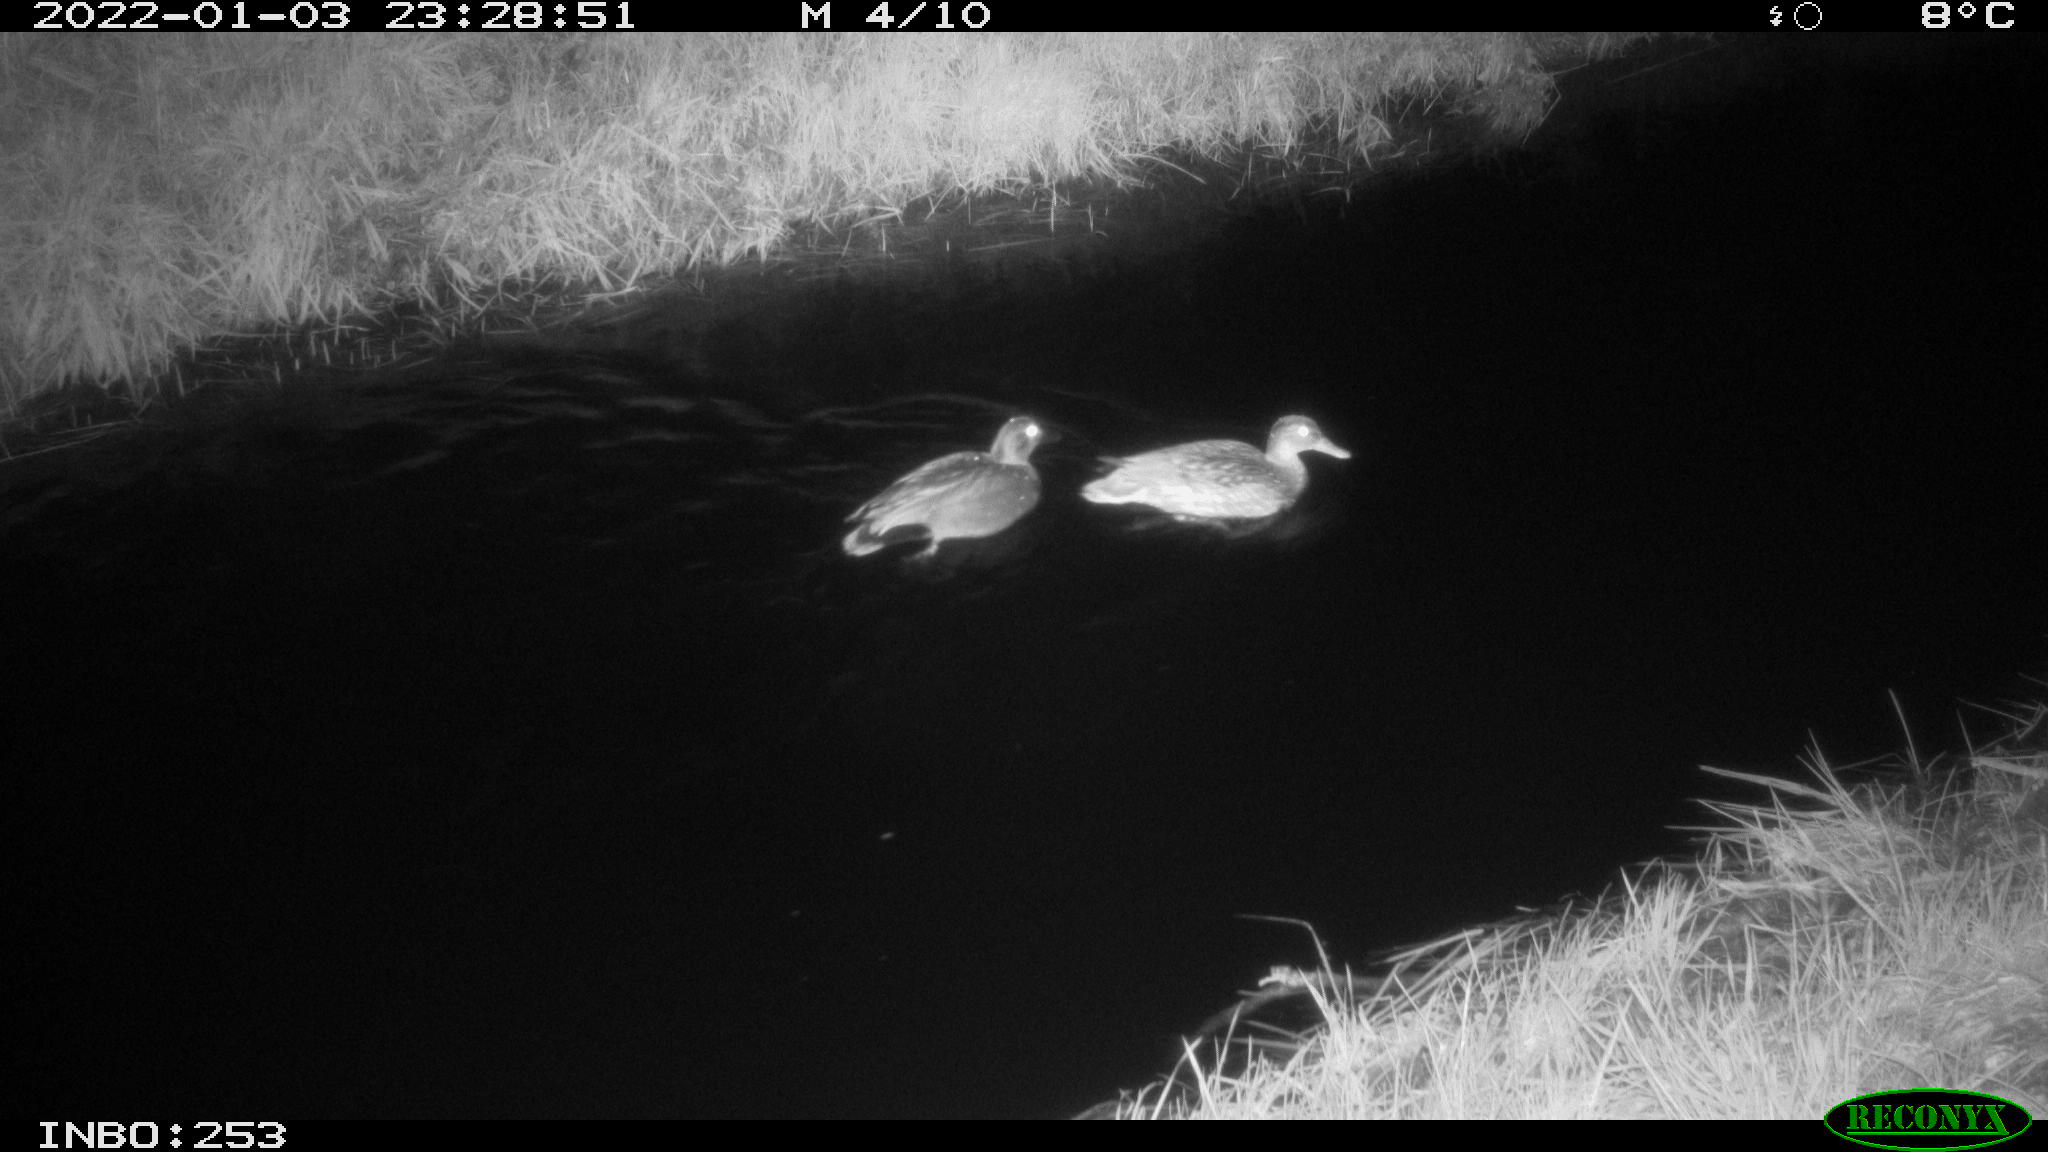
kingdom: Animalia
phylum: Chordata
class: Aves
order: Anseriformes
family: Anatidae
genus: Anas
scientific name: Anas
